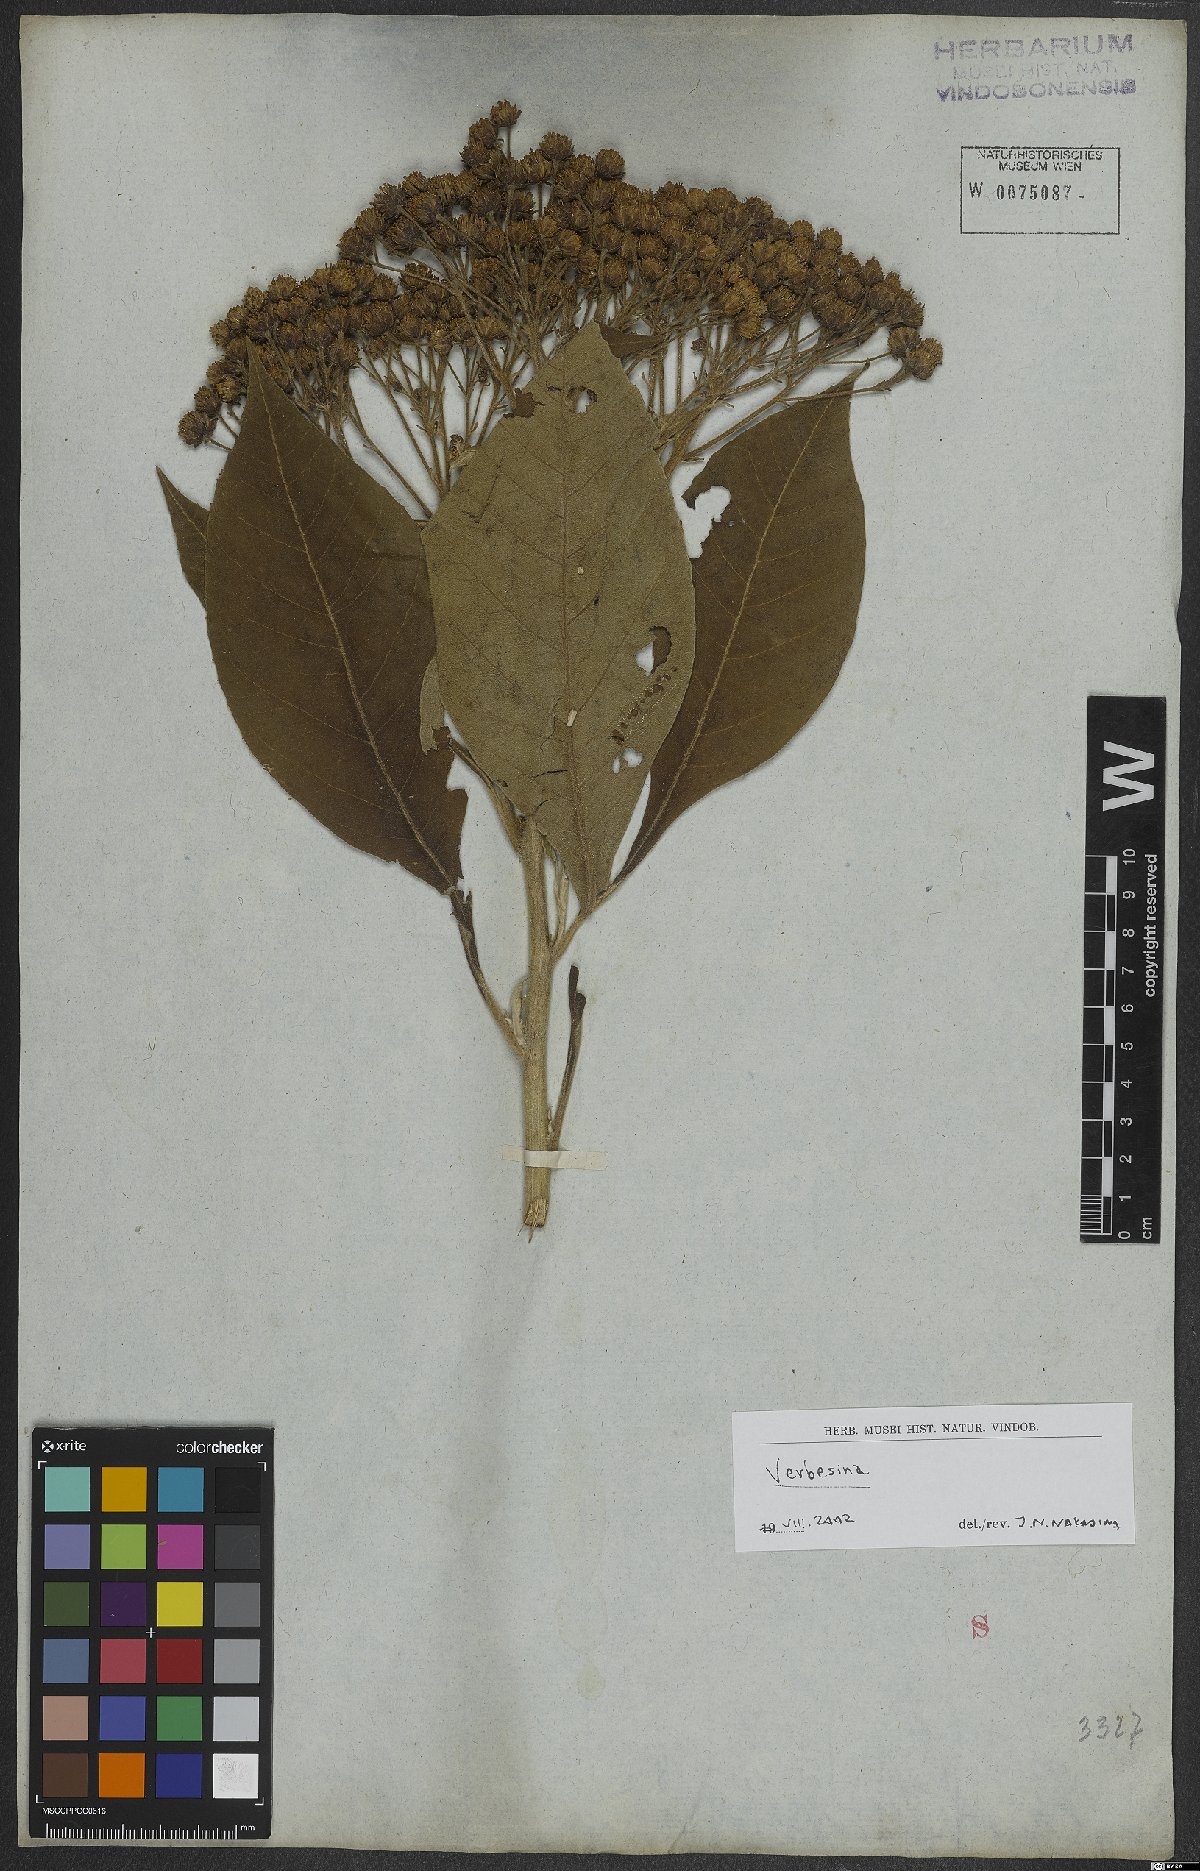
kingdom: Plantae
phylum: Tracheophyta
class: Magnoliopsida
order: Asterales
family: Asteraceae
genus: Verbesina
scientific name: Verbesina
